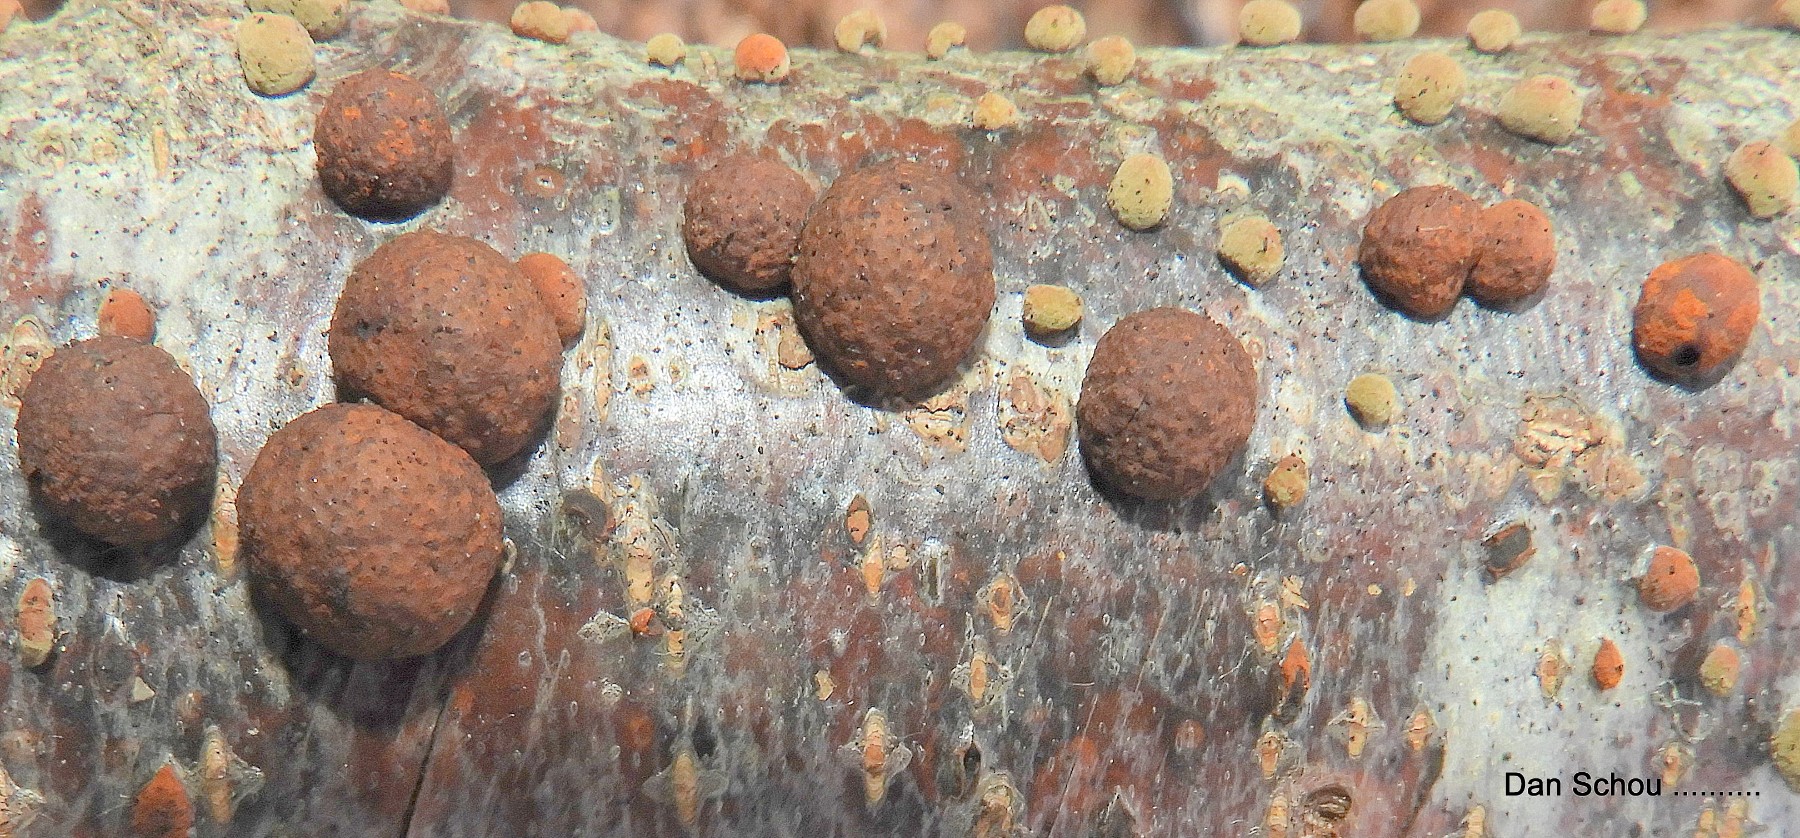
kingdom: Fungi
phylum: Ascomycota
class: Sordariomycetes
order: Xylariales
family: Hypoxylaceae
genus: Hypoxylon
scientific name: Hypoxylon fragiforme
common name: kuljordbær
